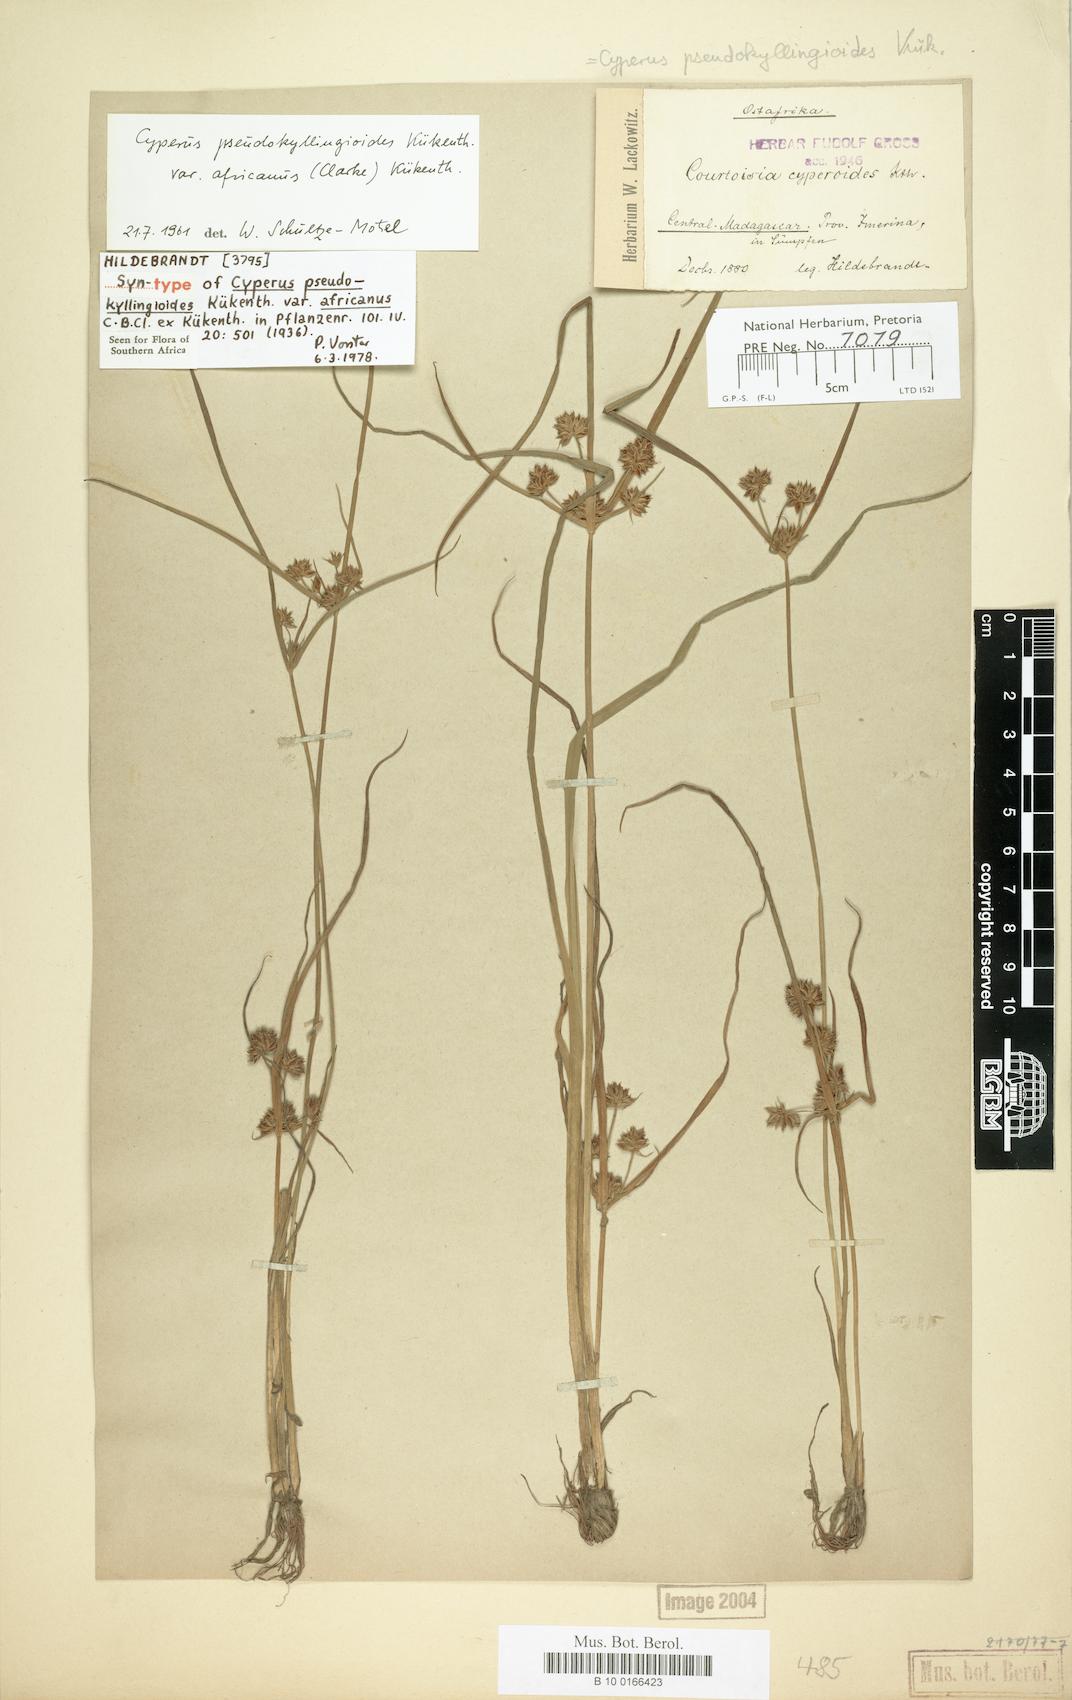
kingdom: Plantae
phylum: Tracheophyta
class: Liliopsida
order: Poales
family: Cyperaceae
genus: Cyperus
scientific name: Cyperus pseudokyllingioides
